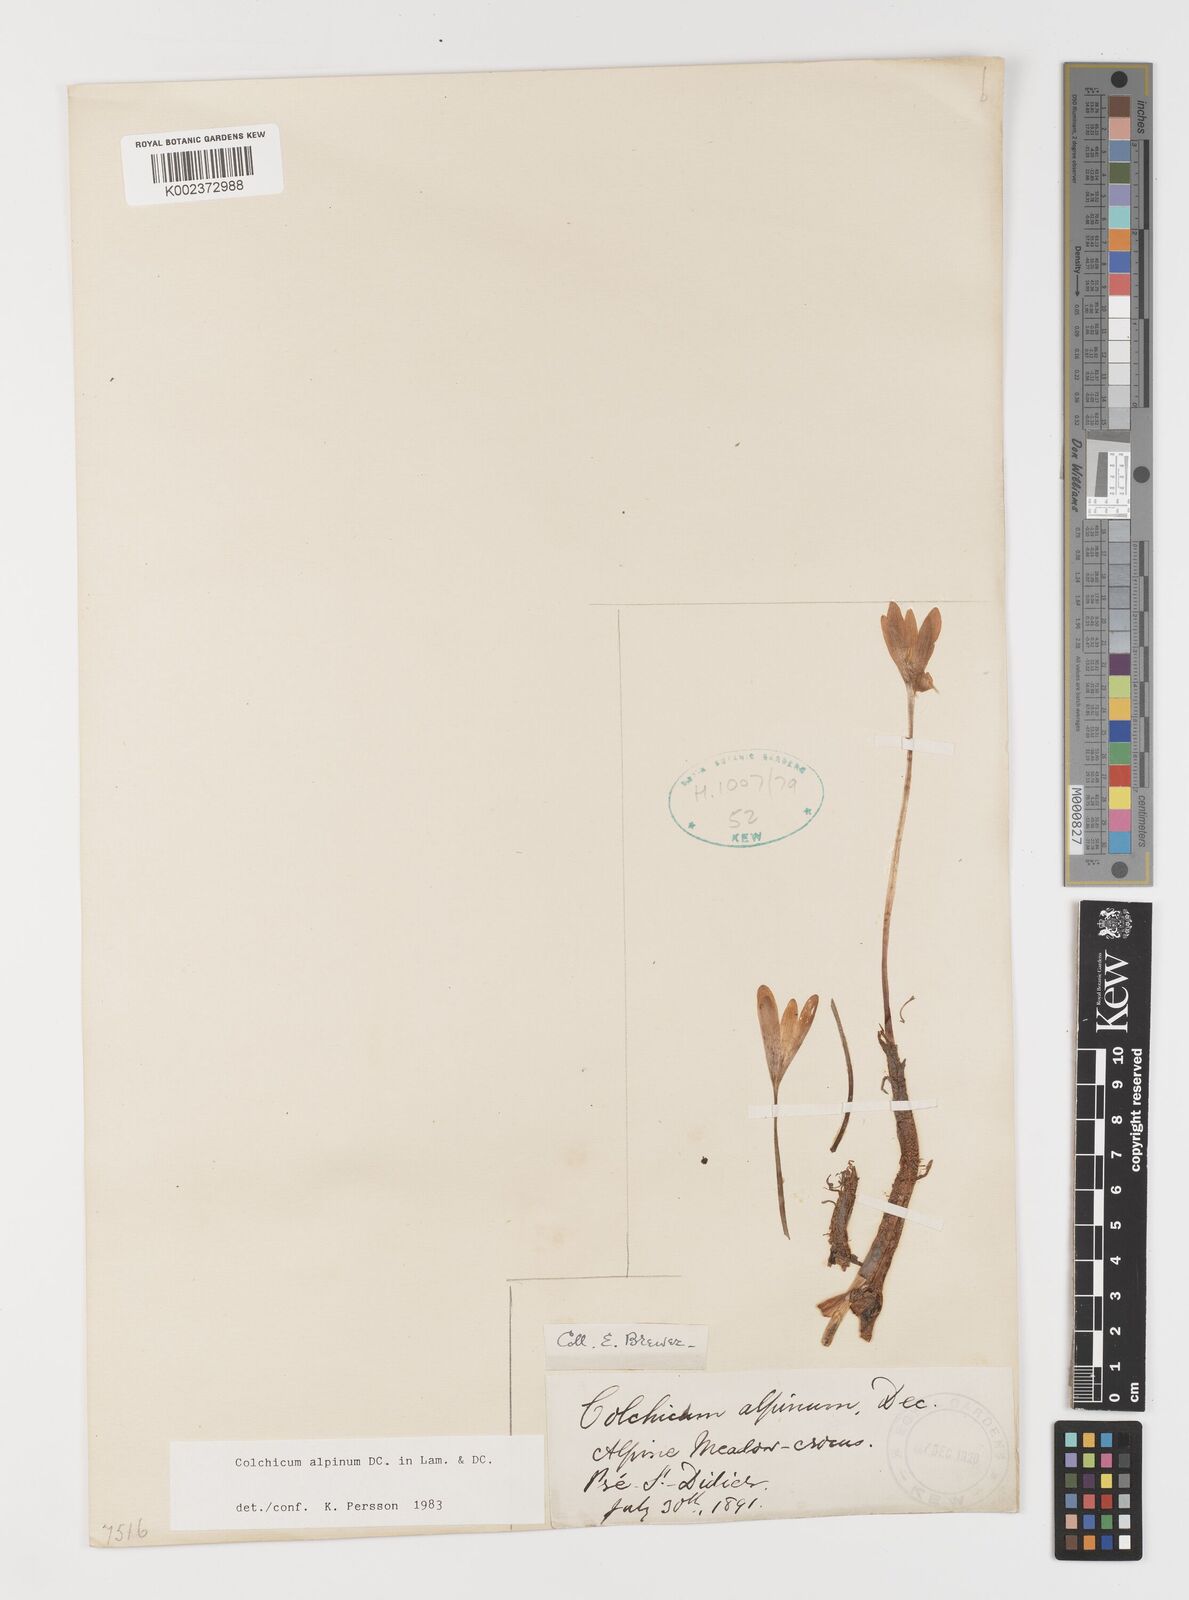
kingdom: Plantae
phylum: Tracheophyta
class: Liliopsida
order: Liliales
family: Colchicaceae
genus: Colchicum
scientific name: Colchicum alpinum
